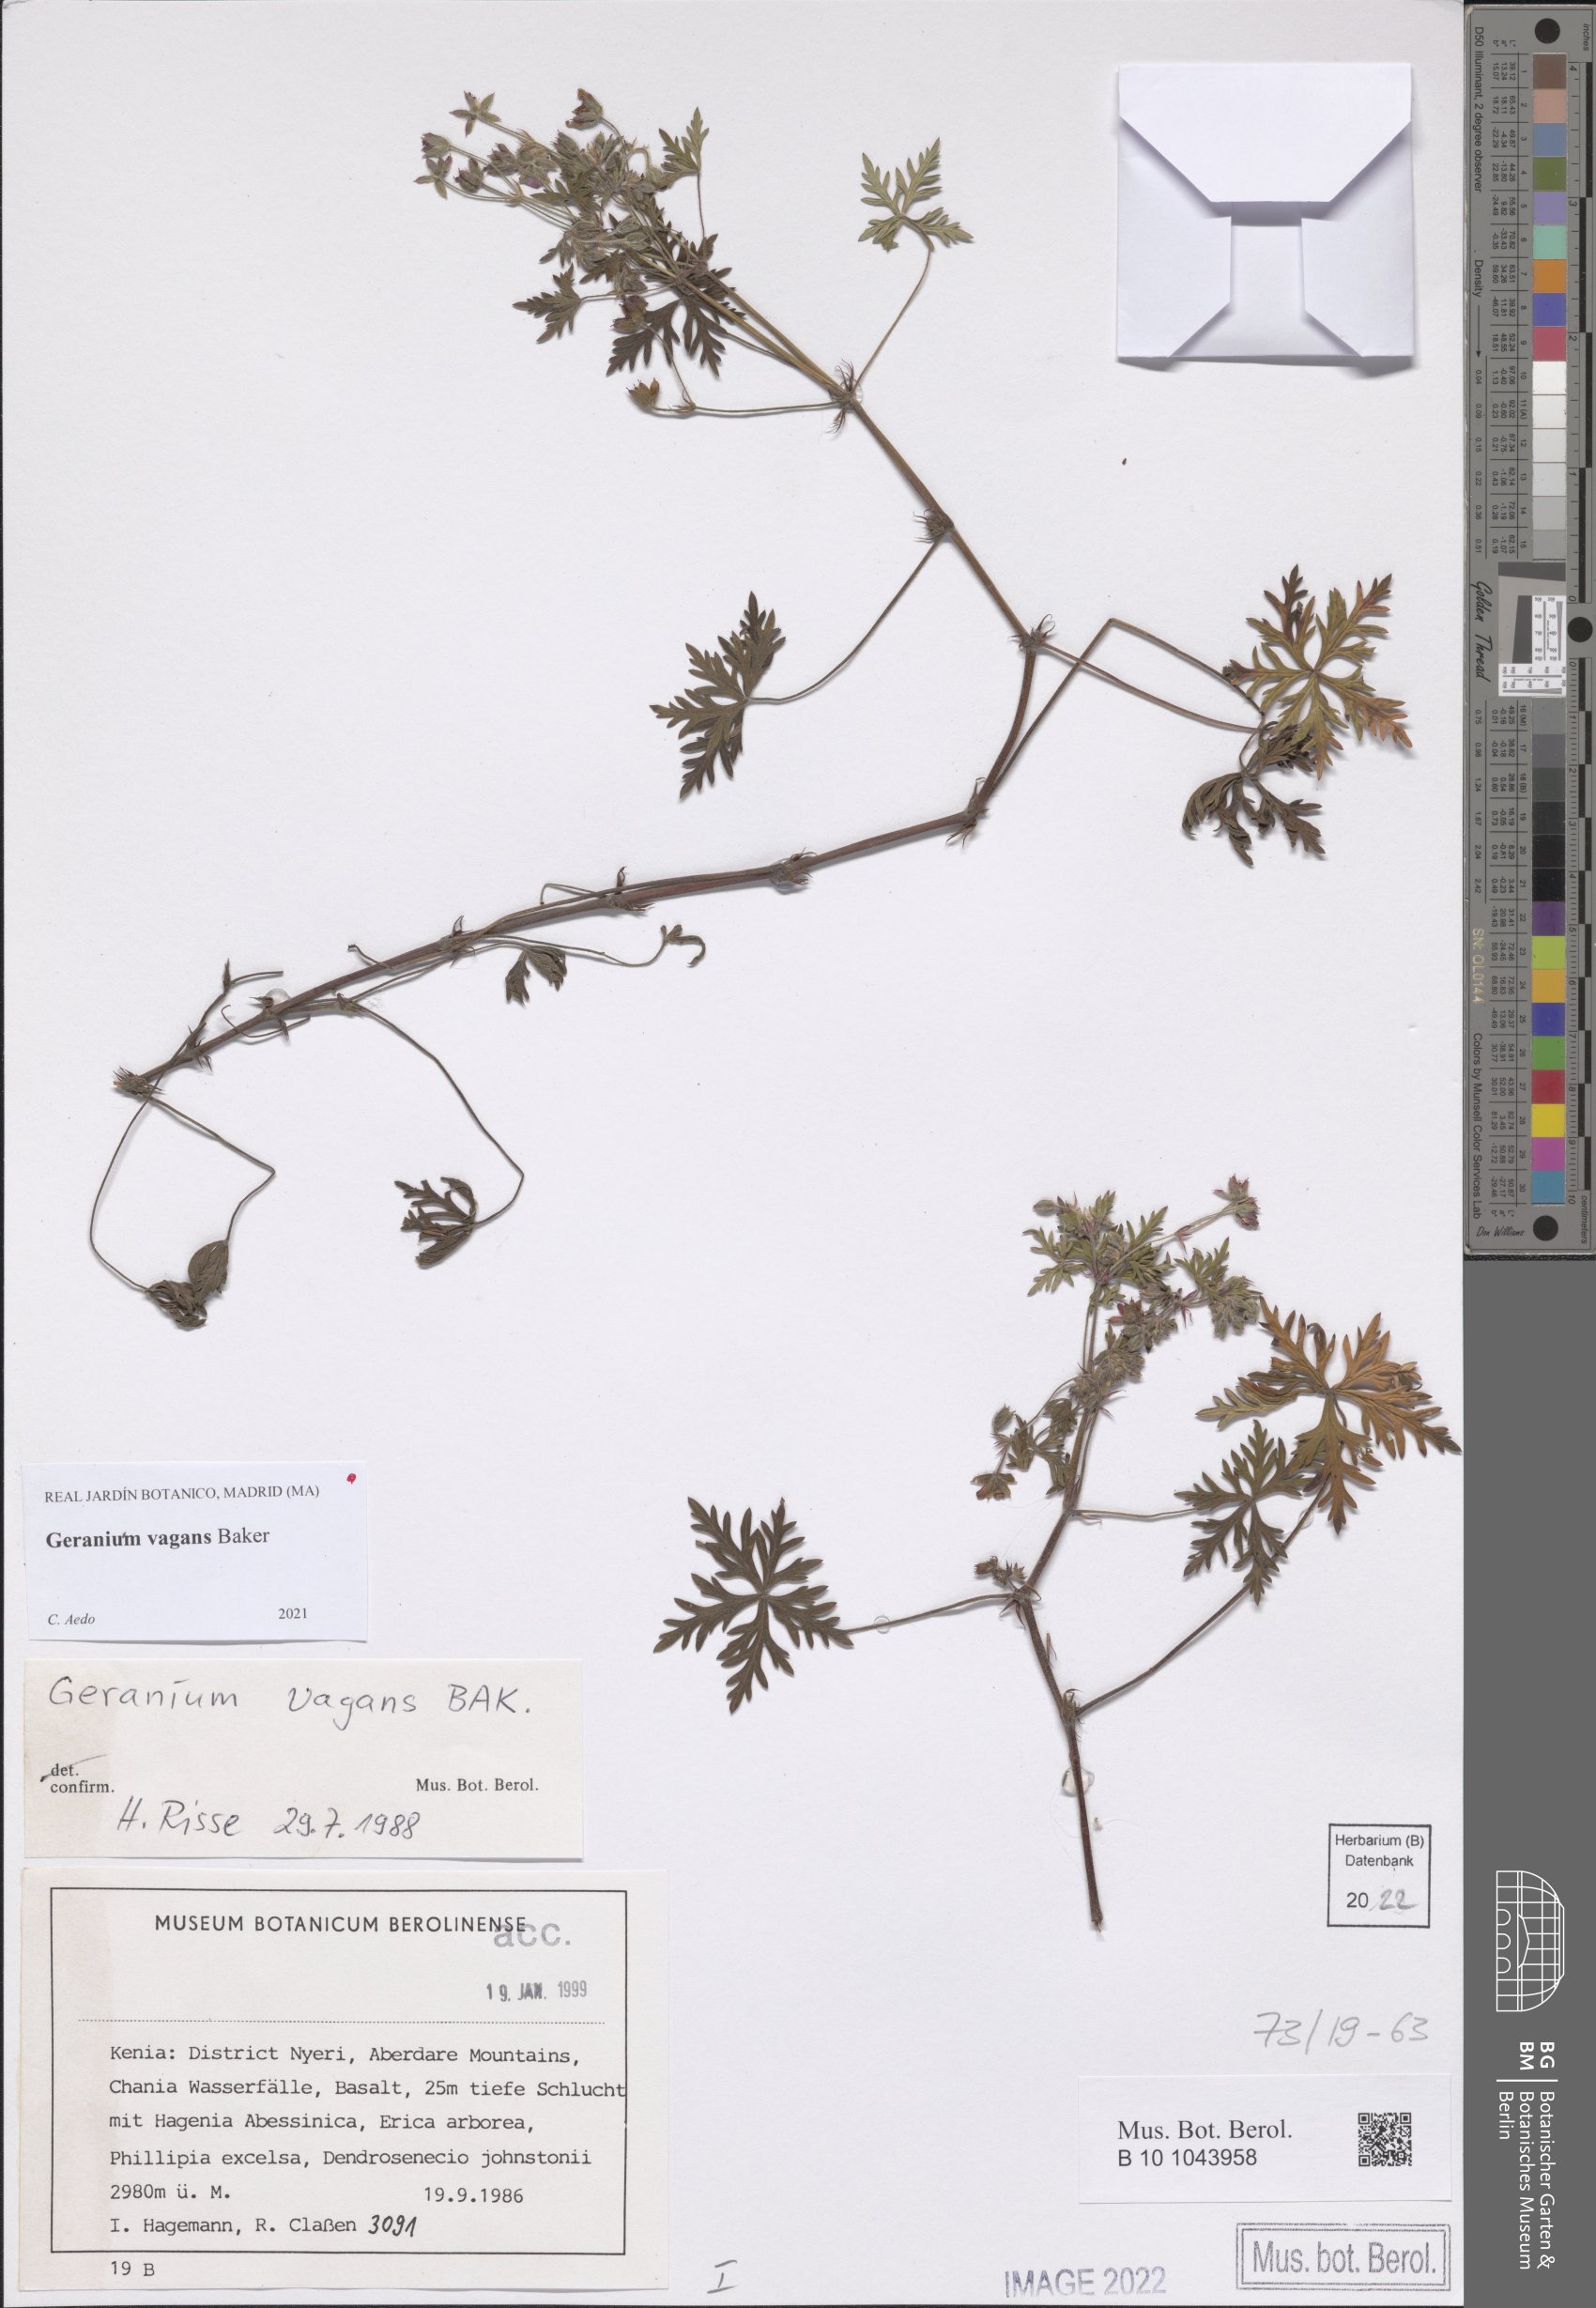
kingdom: Plantae
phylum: Tracheophyta
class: Magnoliopsida
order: Geraniales
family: Geraniaceae
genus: Geranium
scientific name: Geranium vagans
